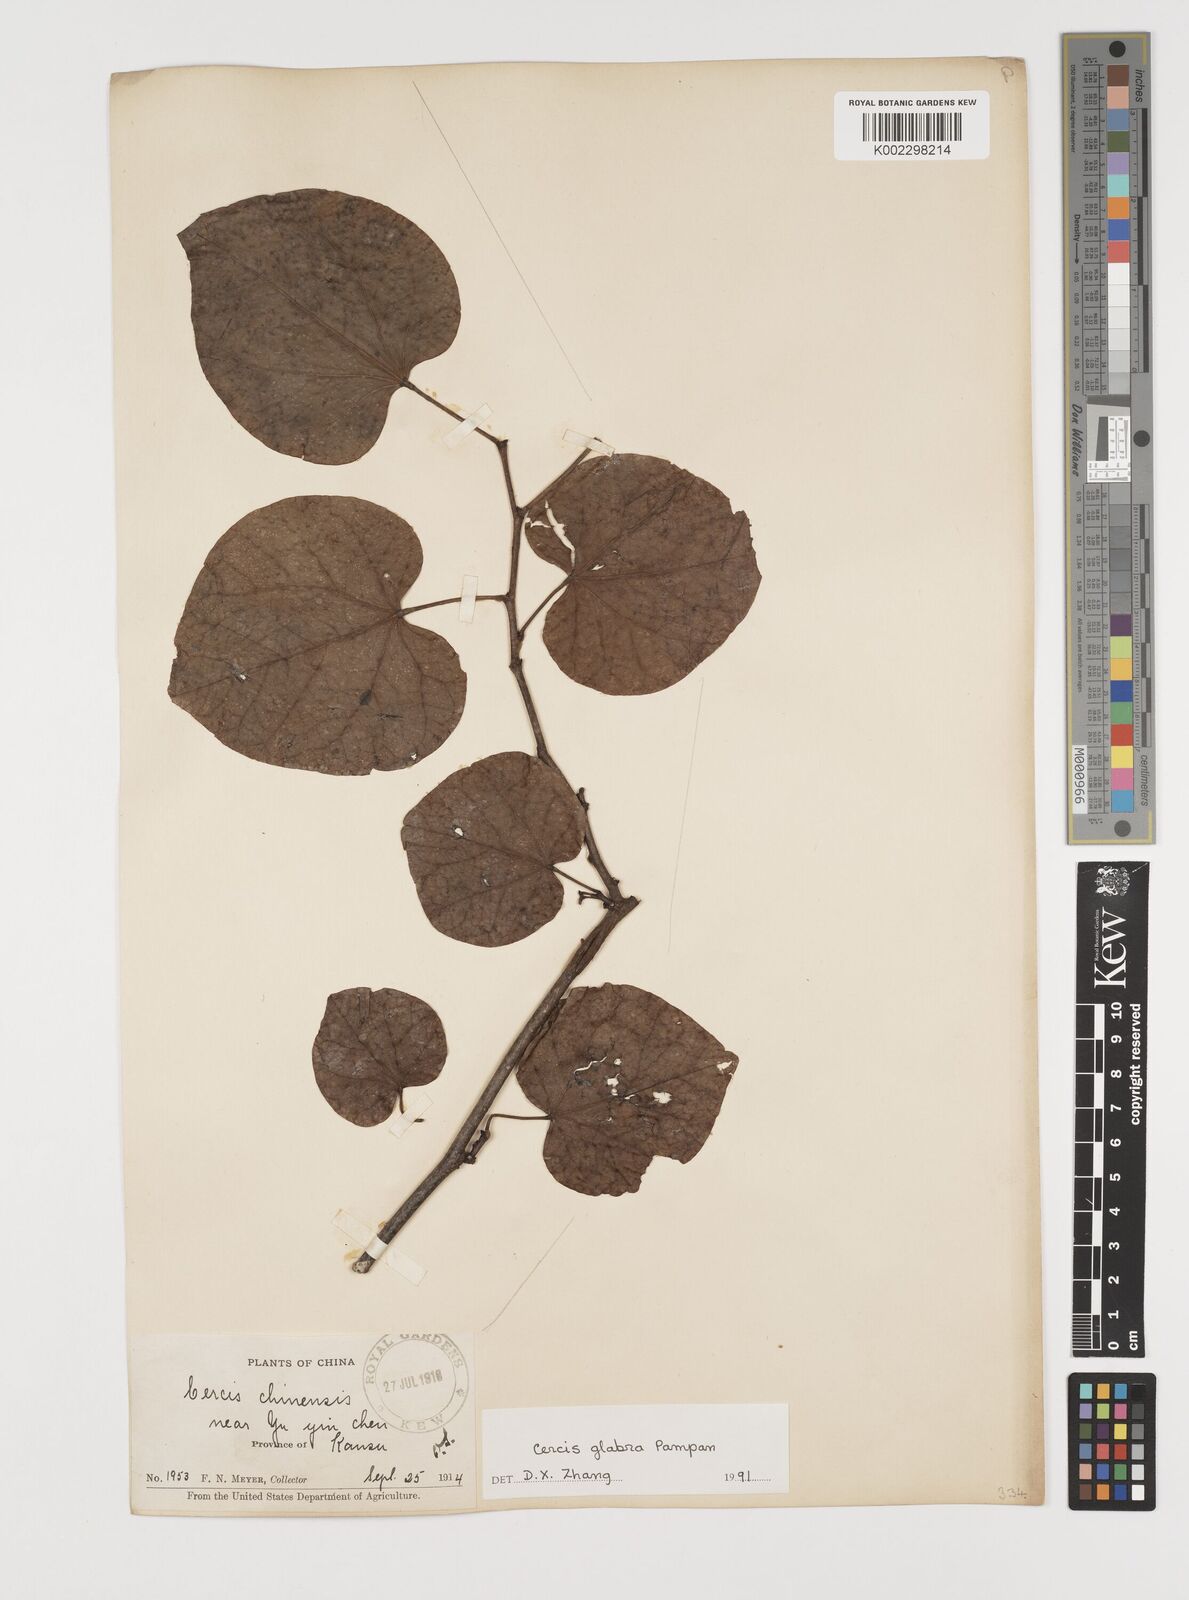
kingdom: Plantae
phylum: Tracheophyta
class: Magnoliopsida
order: Fabales
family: Fabaceae
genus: Cercis
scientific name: Cercis glabra
